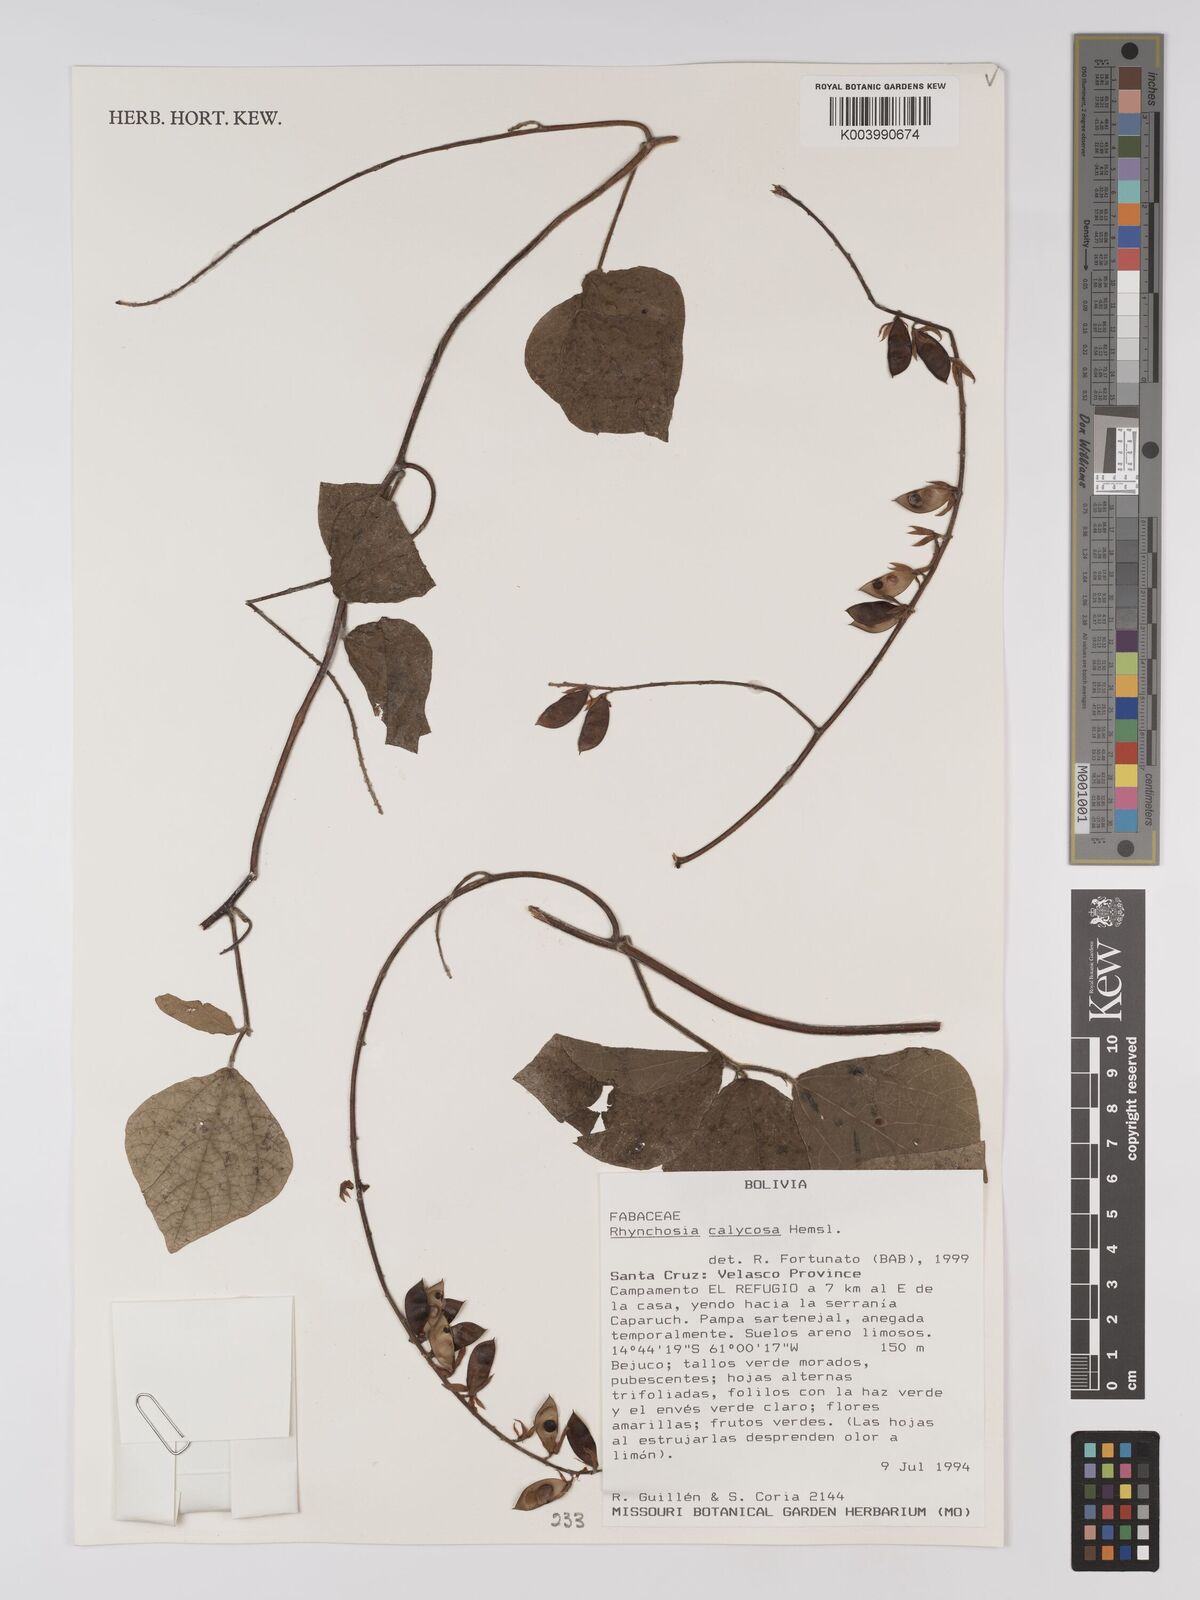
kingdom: Plantae
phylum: Tracheophyta
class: Magnoliopsida
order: Fabales
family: Fabaceae
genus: Rhynchosia
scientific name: Rhynchosia calycosa
